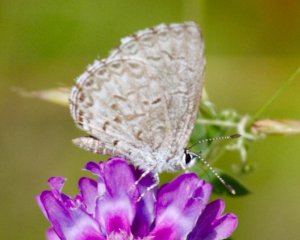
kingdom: Animalia
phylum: Arthropoda
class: Insecta
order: Lepidoptera
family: Lycaenidae
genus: Celastrina
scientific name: Celastrina
